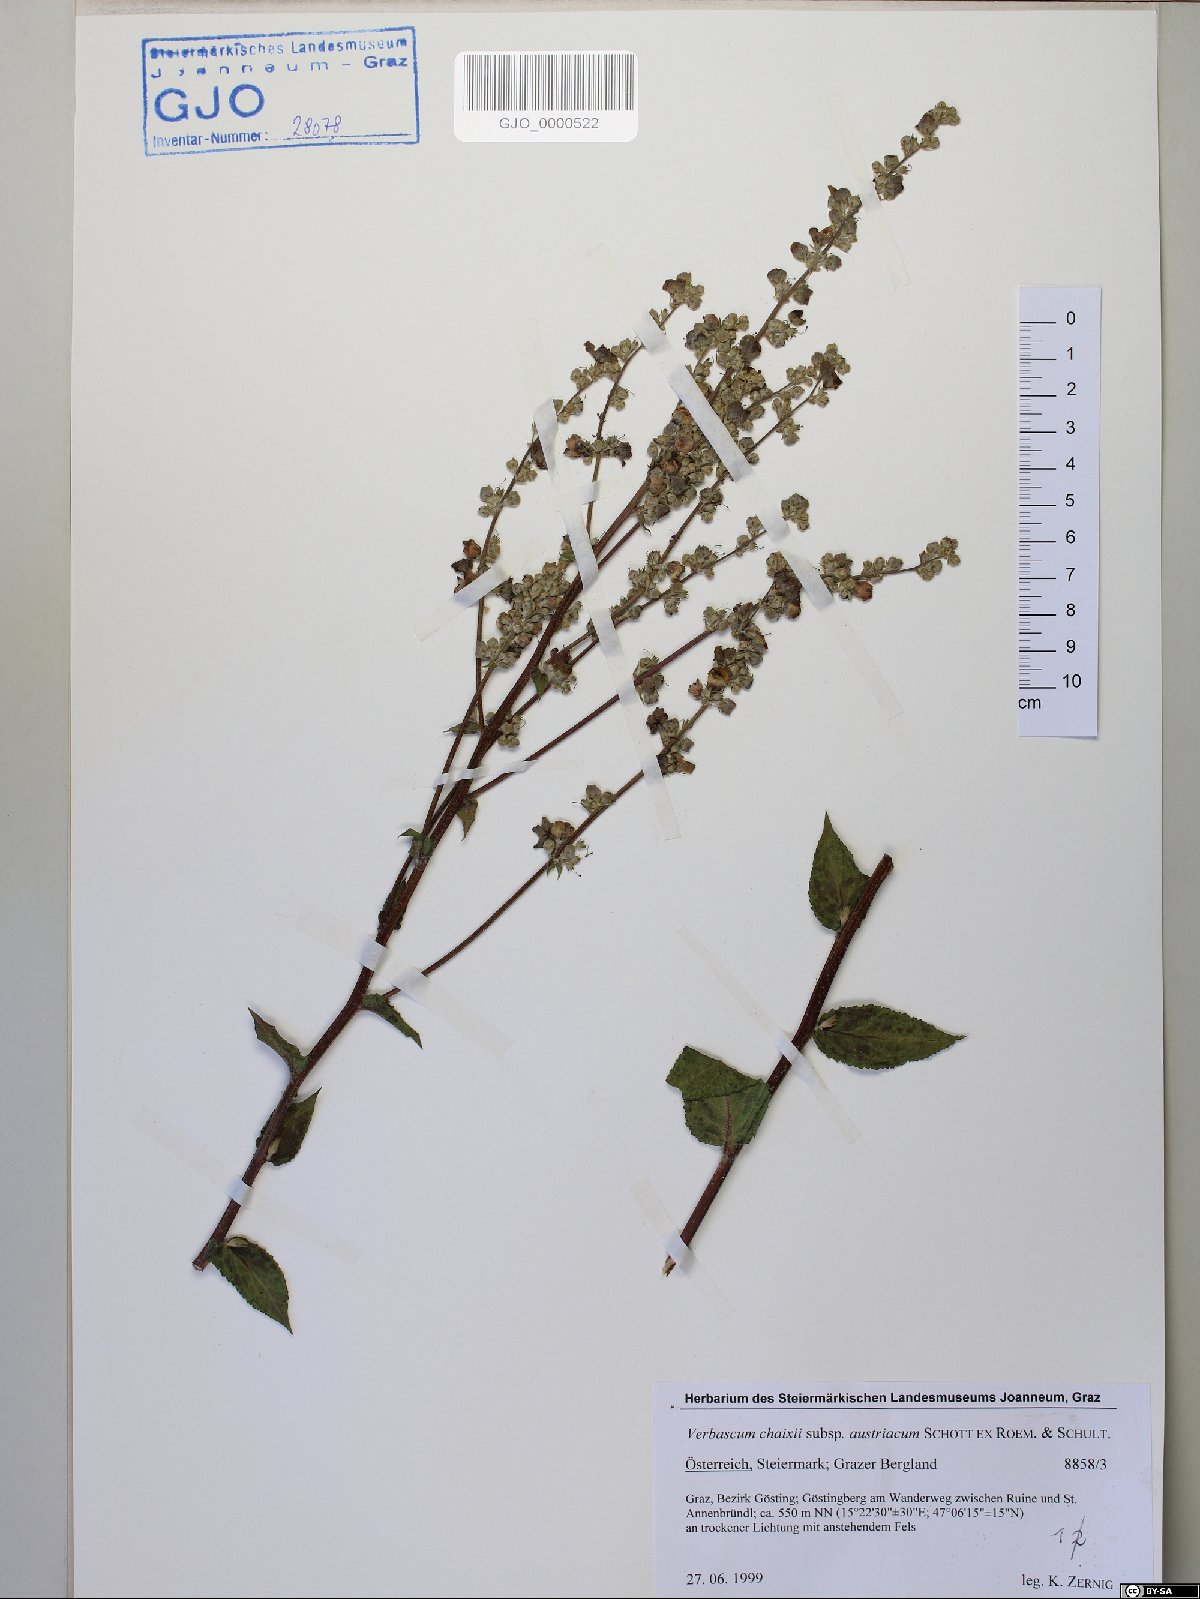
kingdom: Plantae
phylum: Tracheophyta
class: Magnoliopsida
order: Lamiales
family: Scrophulariaceae
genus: Verbascum
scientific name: Verbascum chaixii
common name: Nettle-leaved mullein
